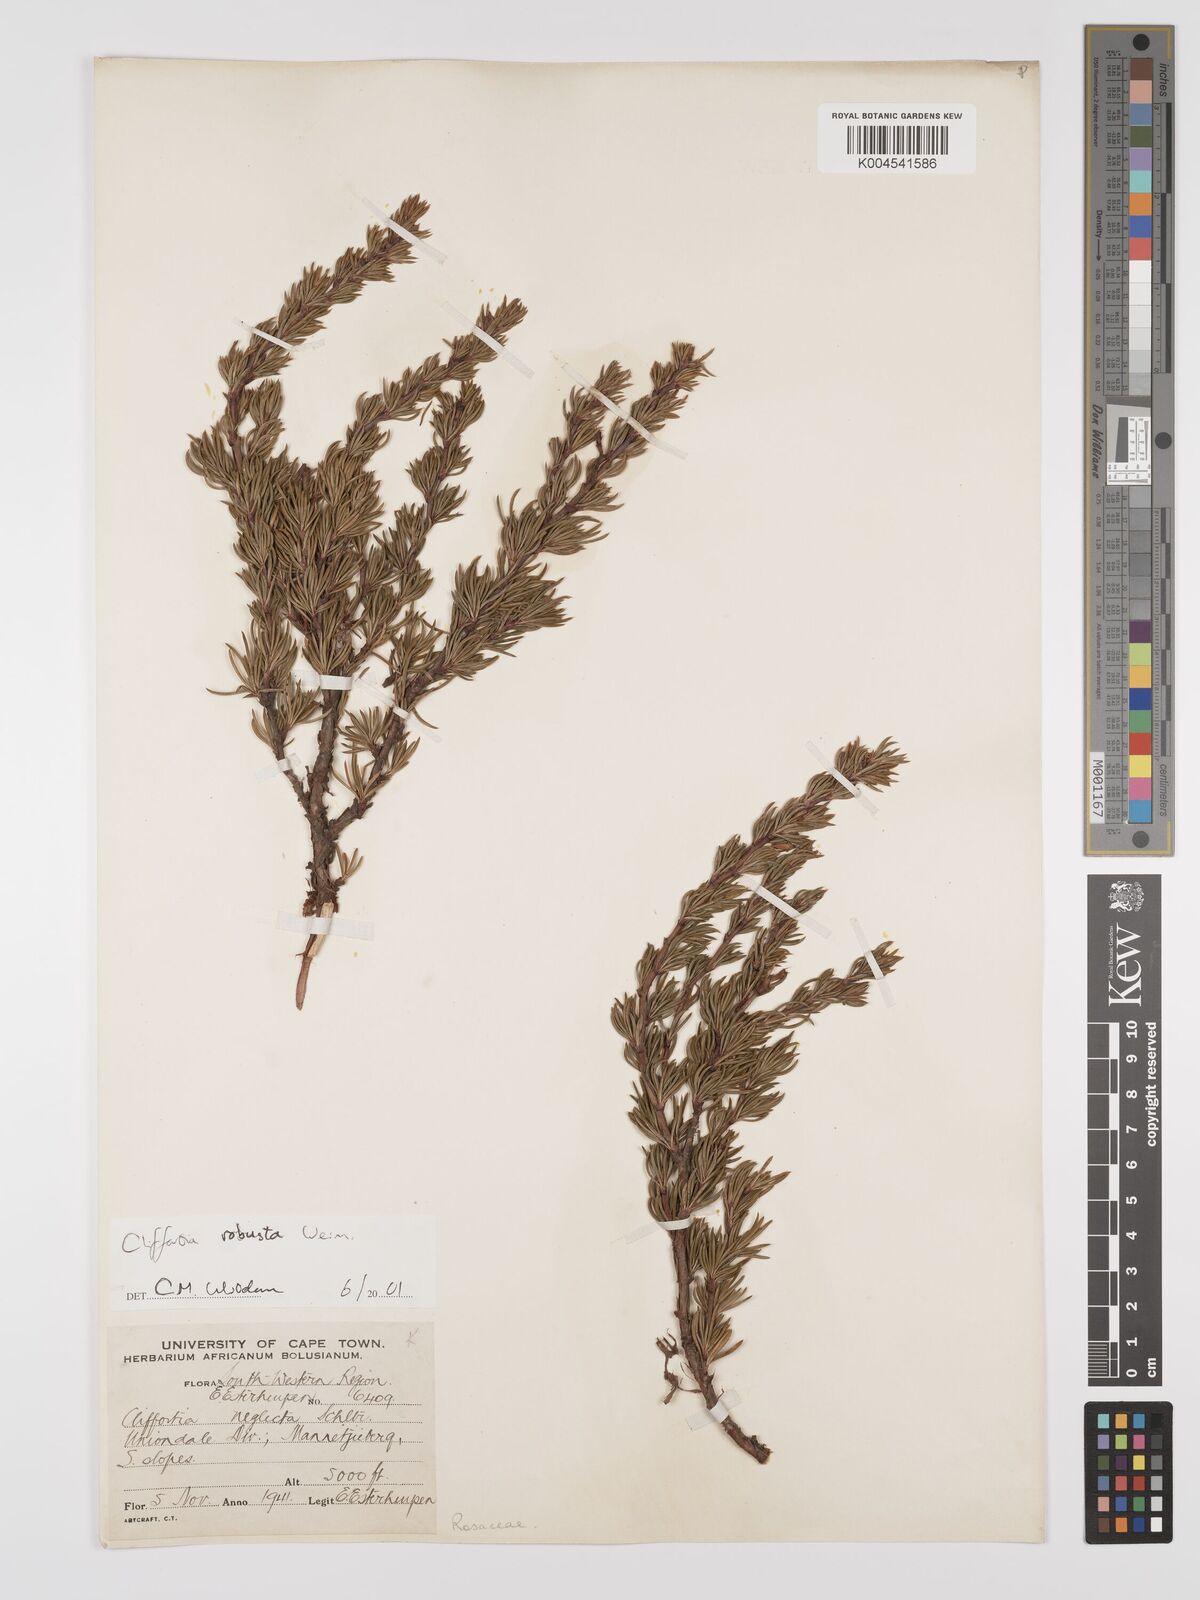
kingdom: Plantae
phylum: Tracheophyta
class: Magnoliopsida
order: Rosales
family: Rosaceae
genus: Cliffortia
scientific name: Cliffortia robusta
